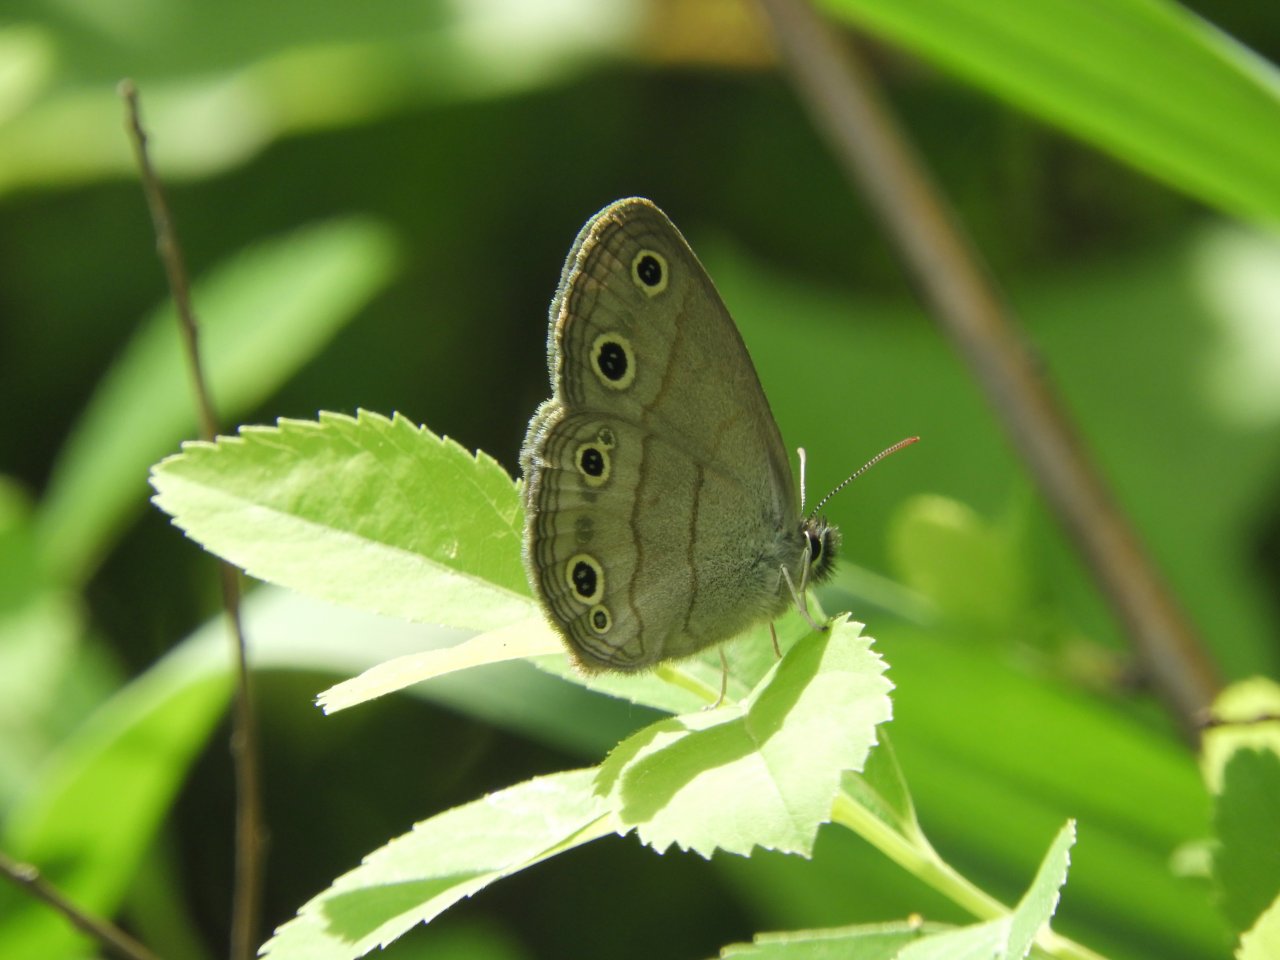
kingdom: Animalia
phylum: Arthropoda
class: Insecta
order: Lepidoptera
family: Nymphalidae
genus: Euptychia
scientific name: Euptychia cymela
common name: Little Wood Satyr
